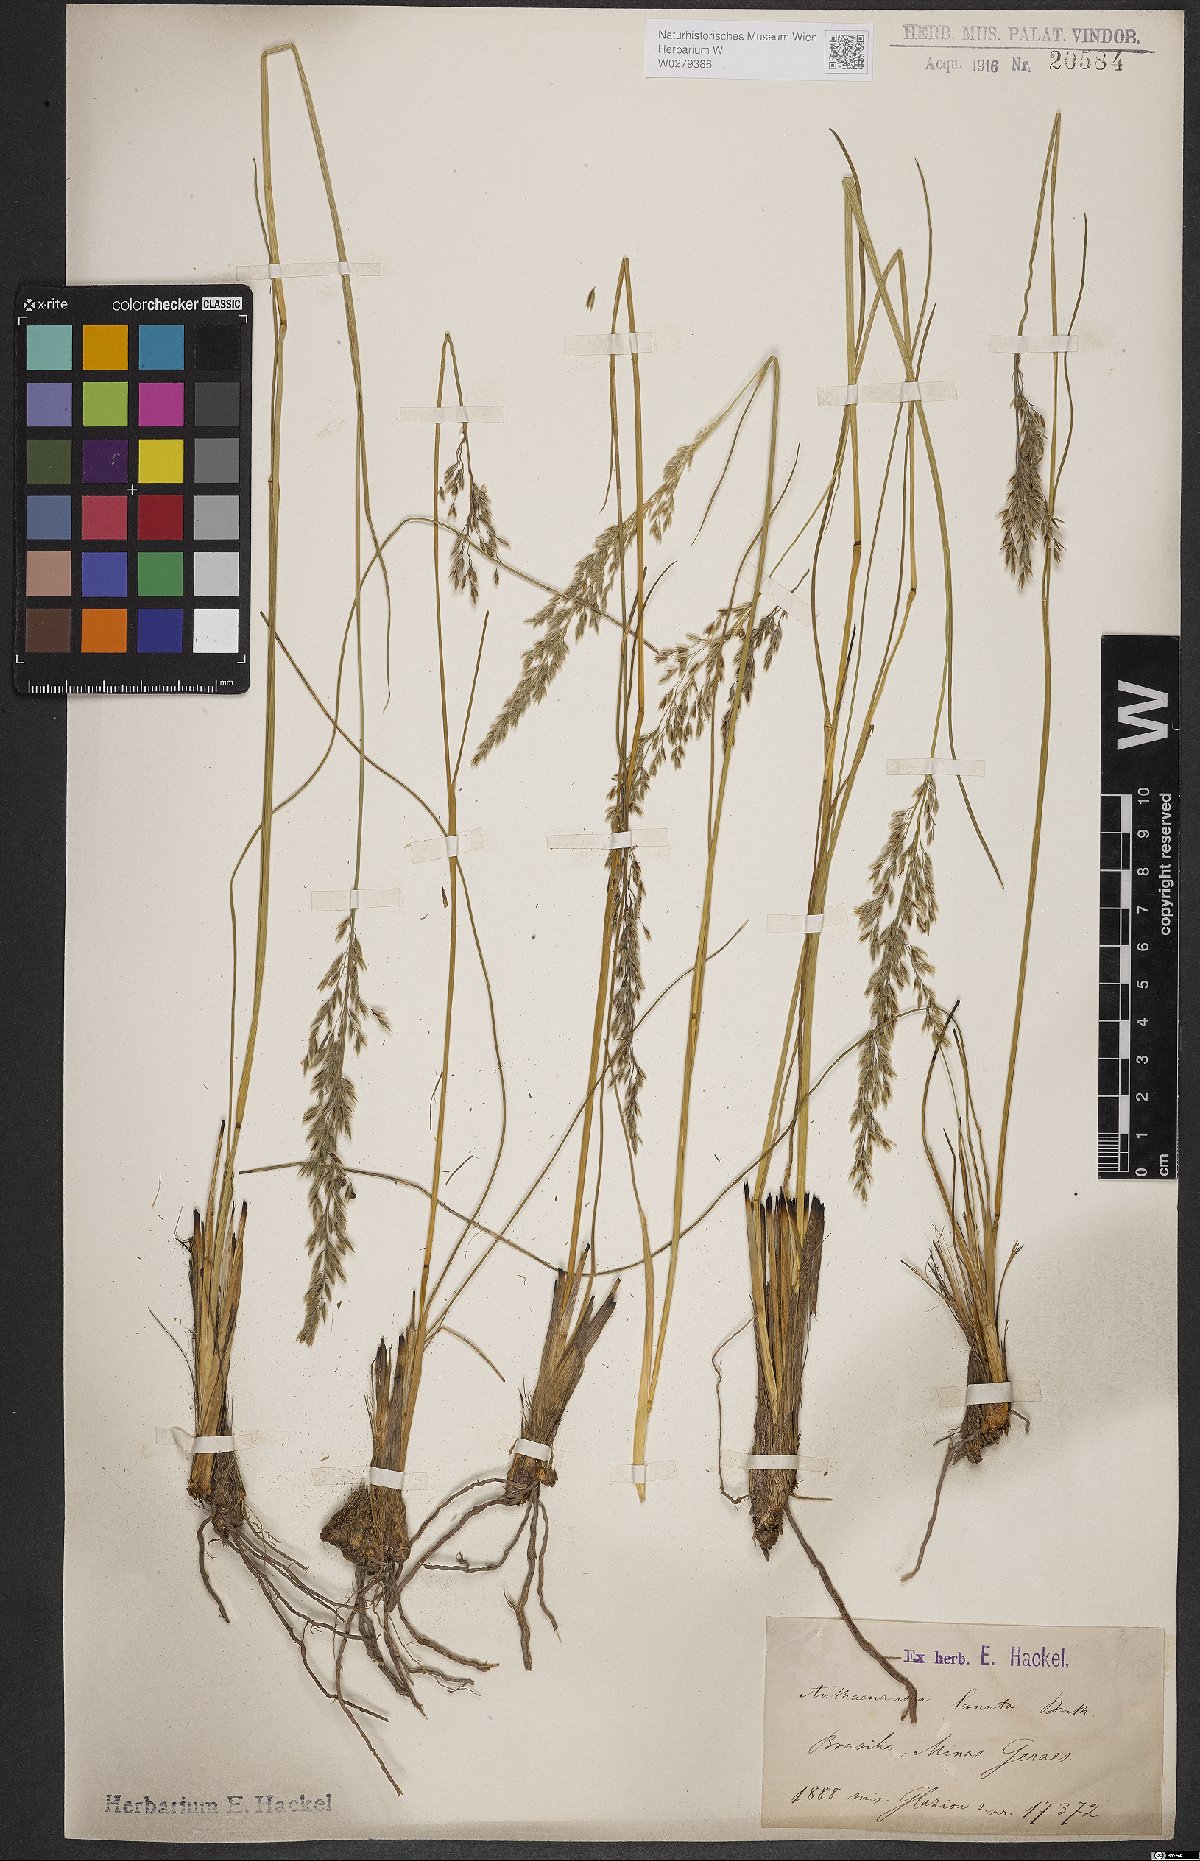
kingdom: Plantae
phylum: Tracheophyta
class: Liliopsida
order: Poales
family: Poaceae
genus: Anthaenantia
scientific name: Anthaenantia lanata
